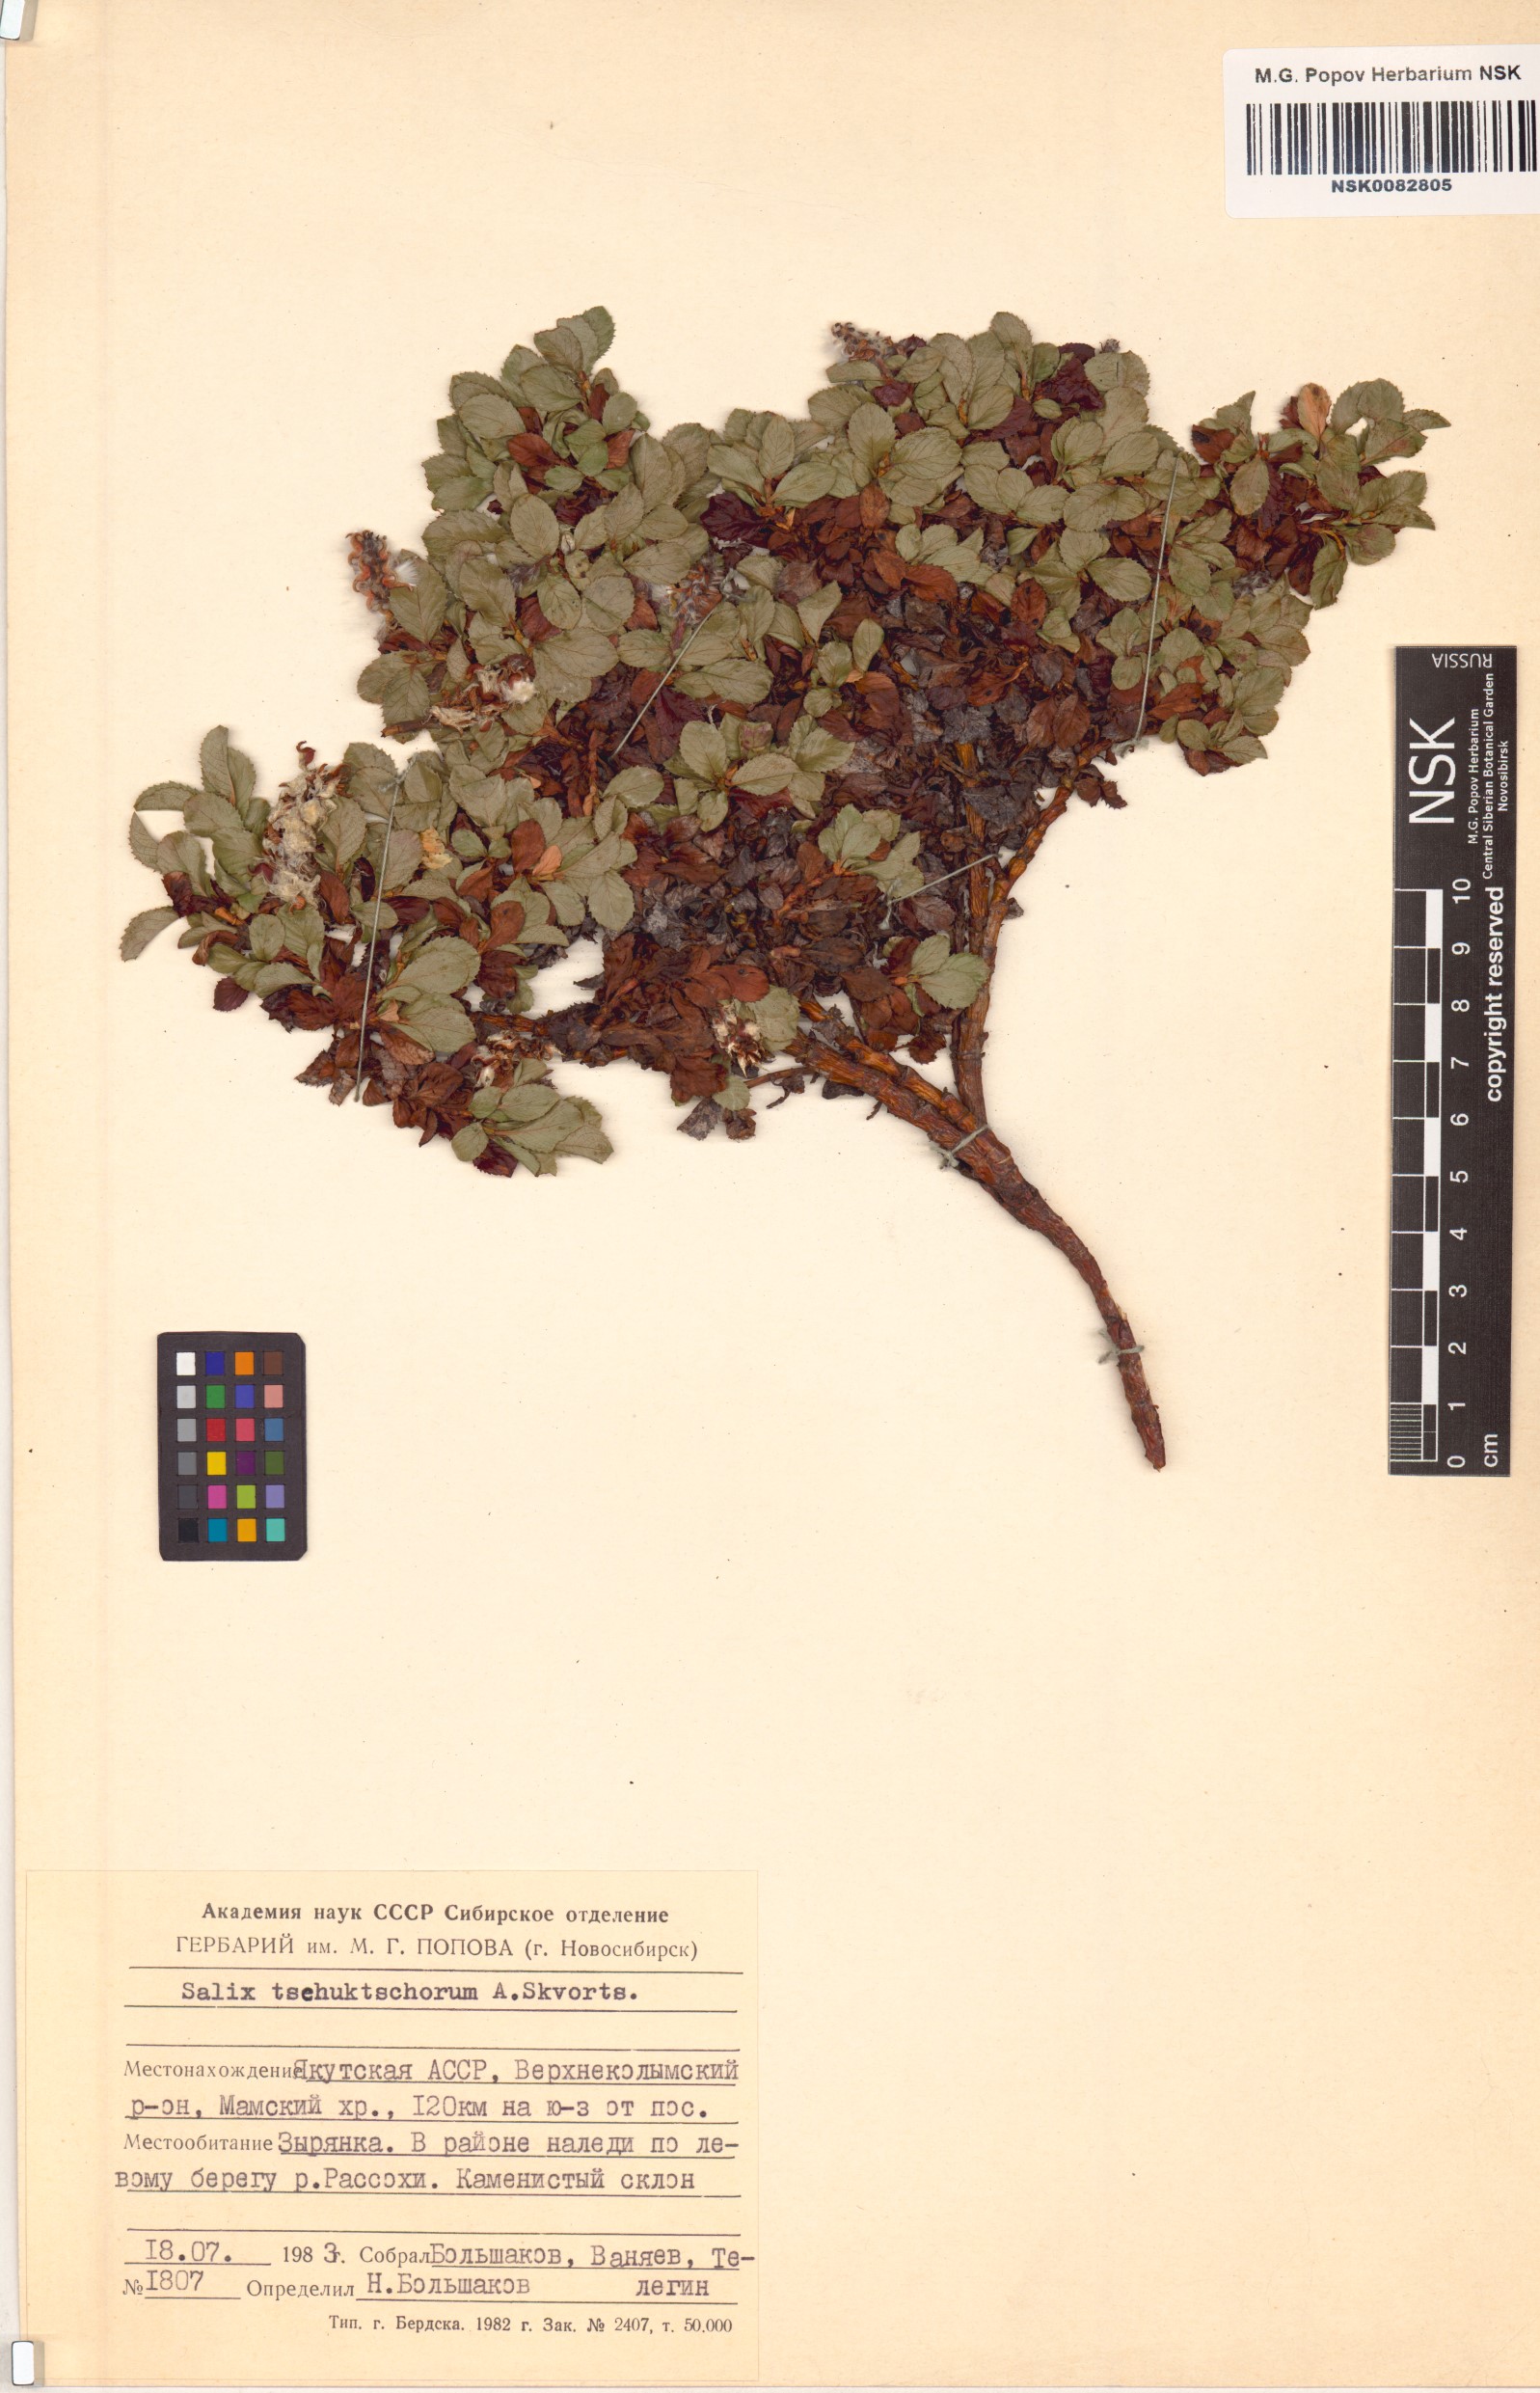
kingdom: Plantae
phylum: Tracheophyta
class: Magnoliopsida
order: Malpighiales
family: Salicaceae
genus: Salix
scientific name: Salix tschuktschorum
